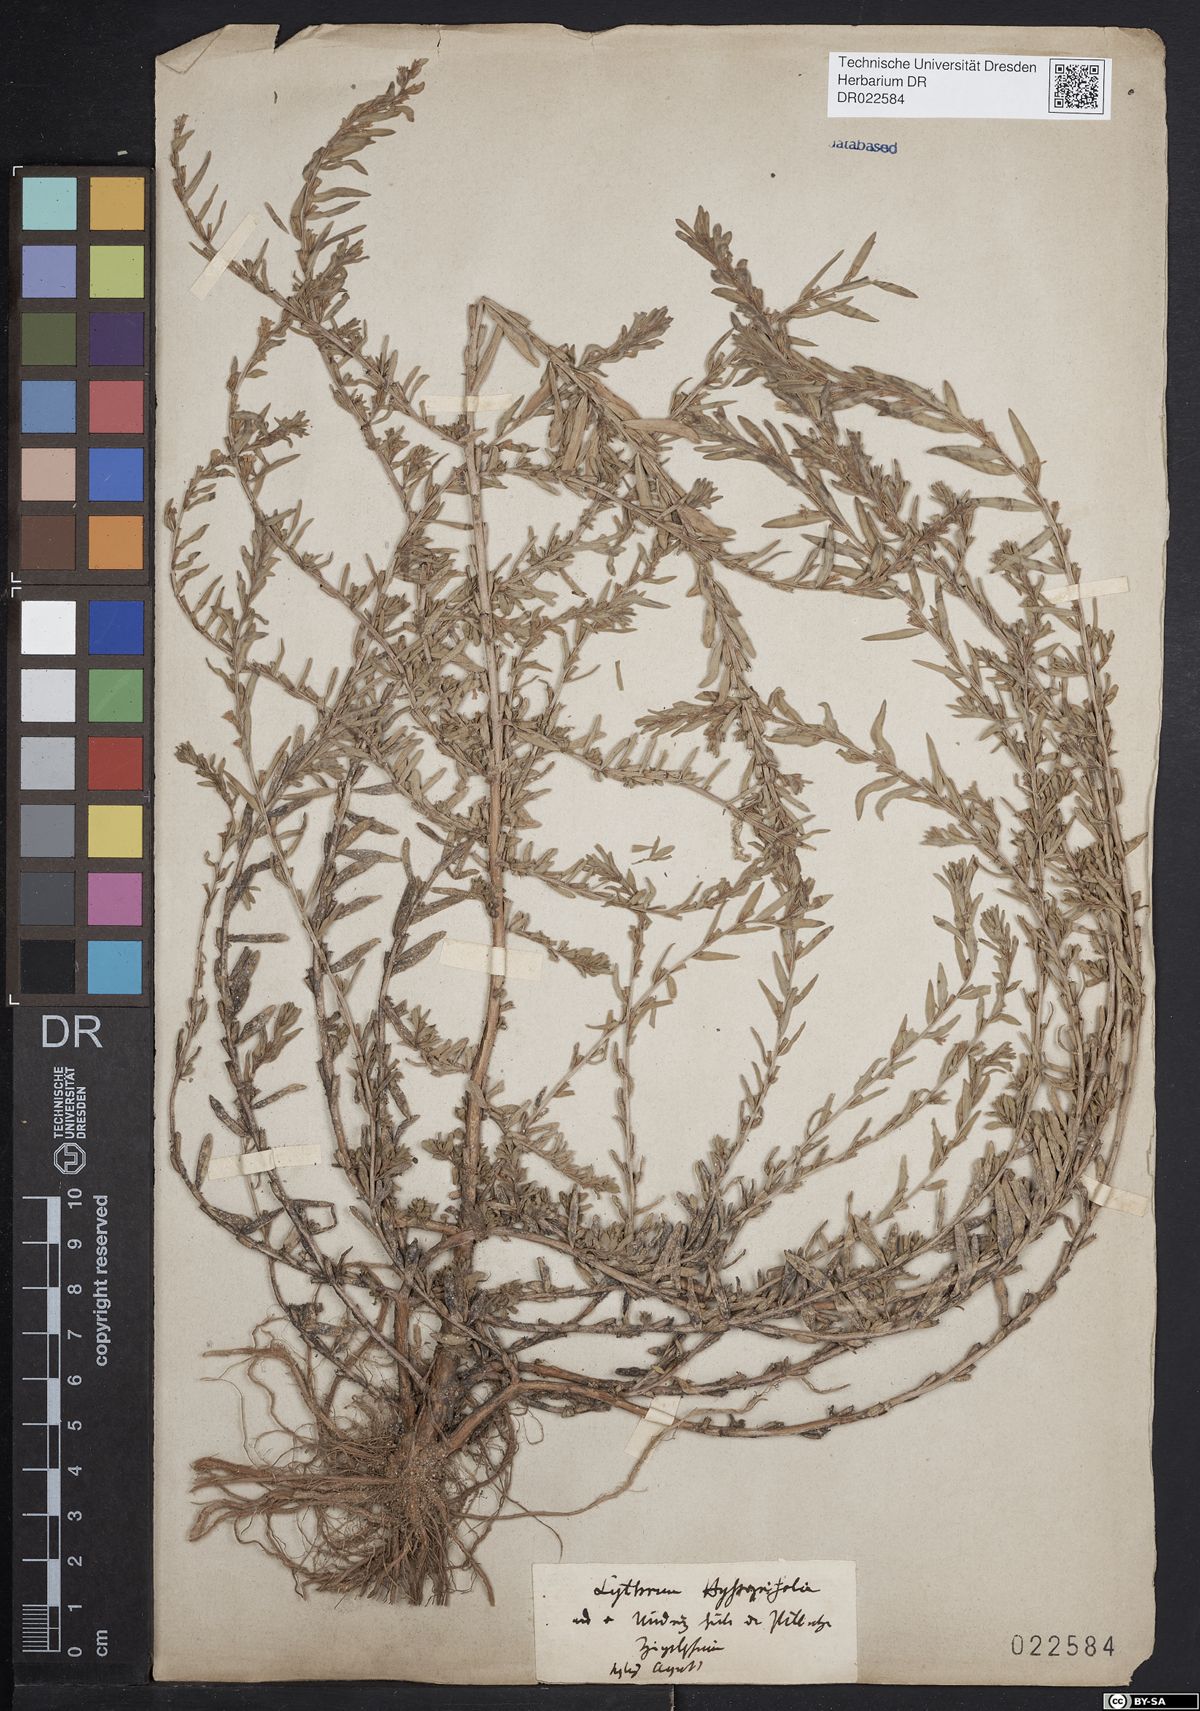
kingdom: Plantae
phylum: Tracheophyta
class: Magnoliopsida
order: Myrtales
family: Lythraceae
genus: Lythrum
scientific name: Lythrum hyssopifolia
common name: Grass-poly
